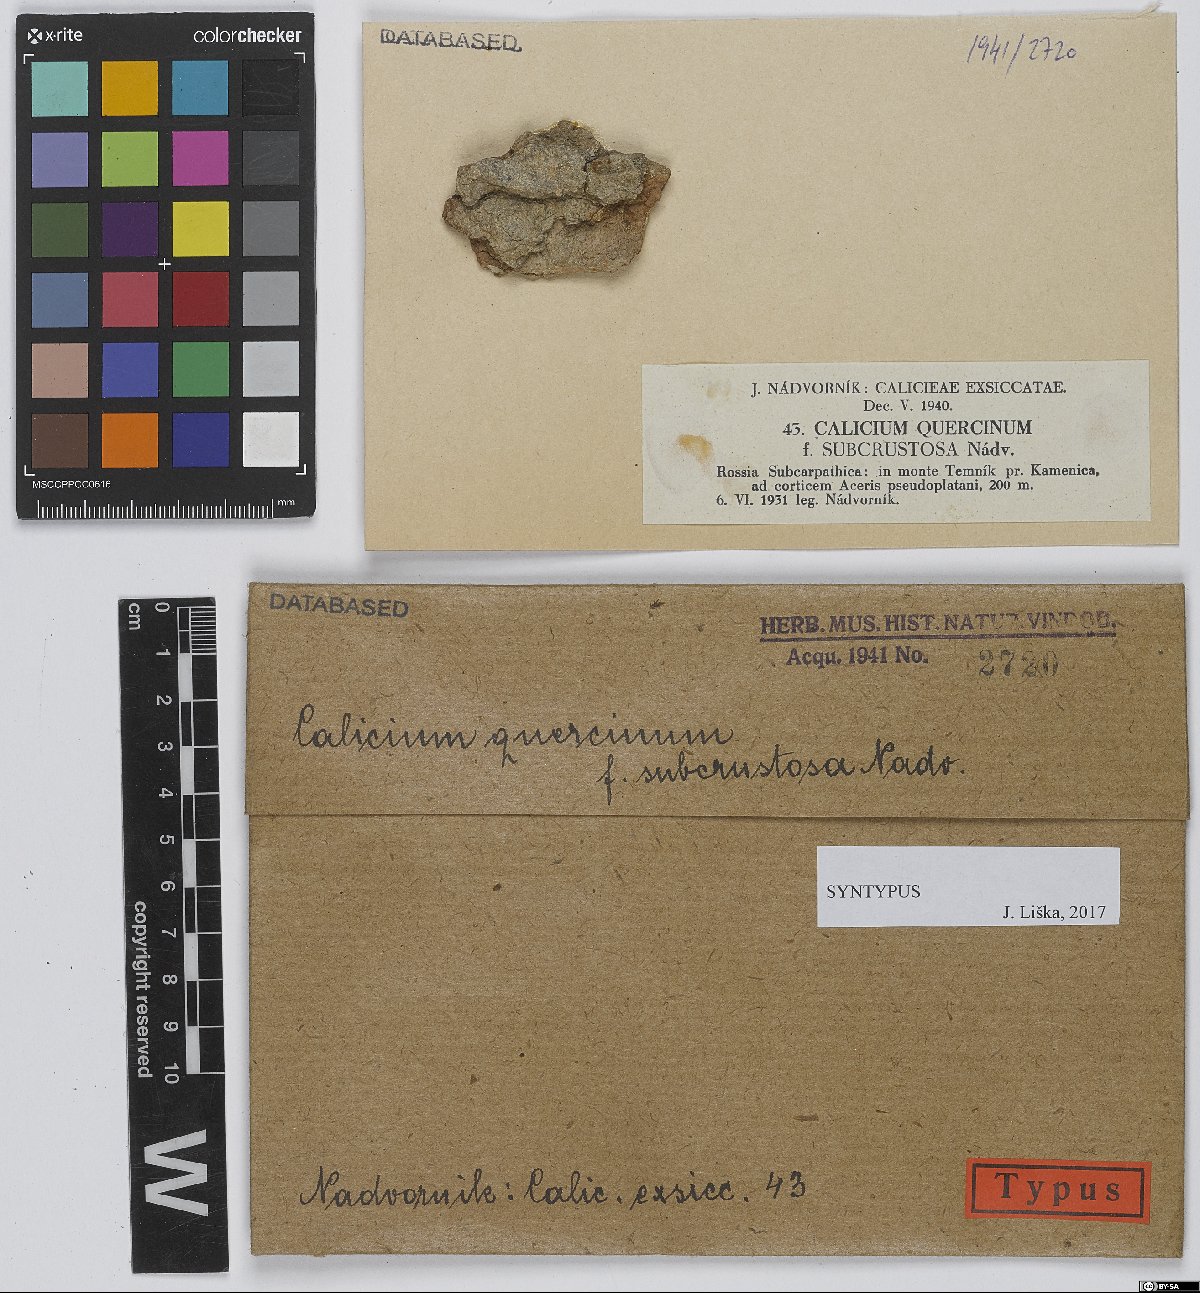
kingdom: Fungi
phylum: Ascomycota
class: Lecanoromycetes
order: Caliciales
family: Caliciaceae
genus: Calicium
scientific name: Calicium quercinum
